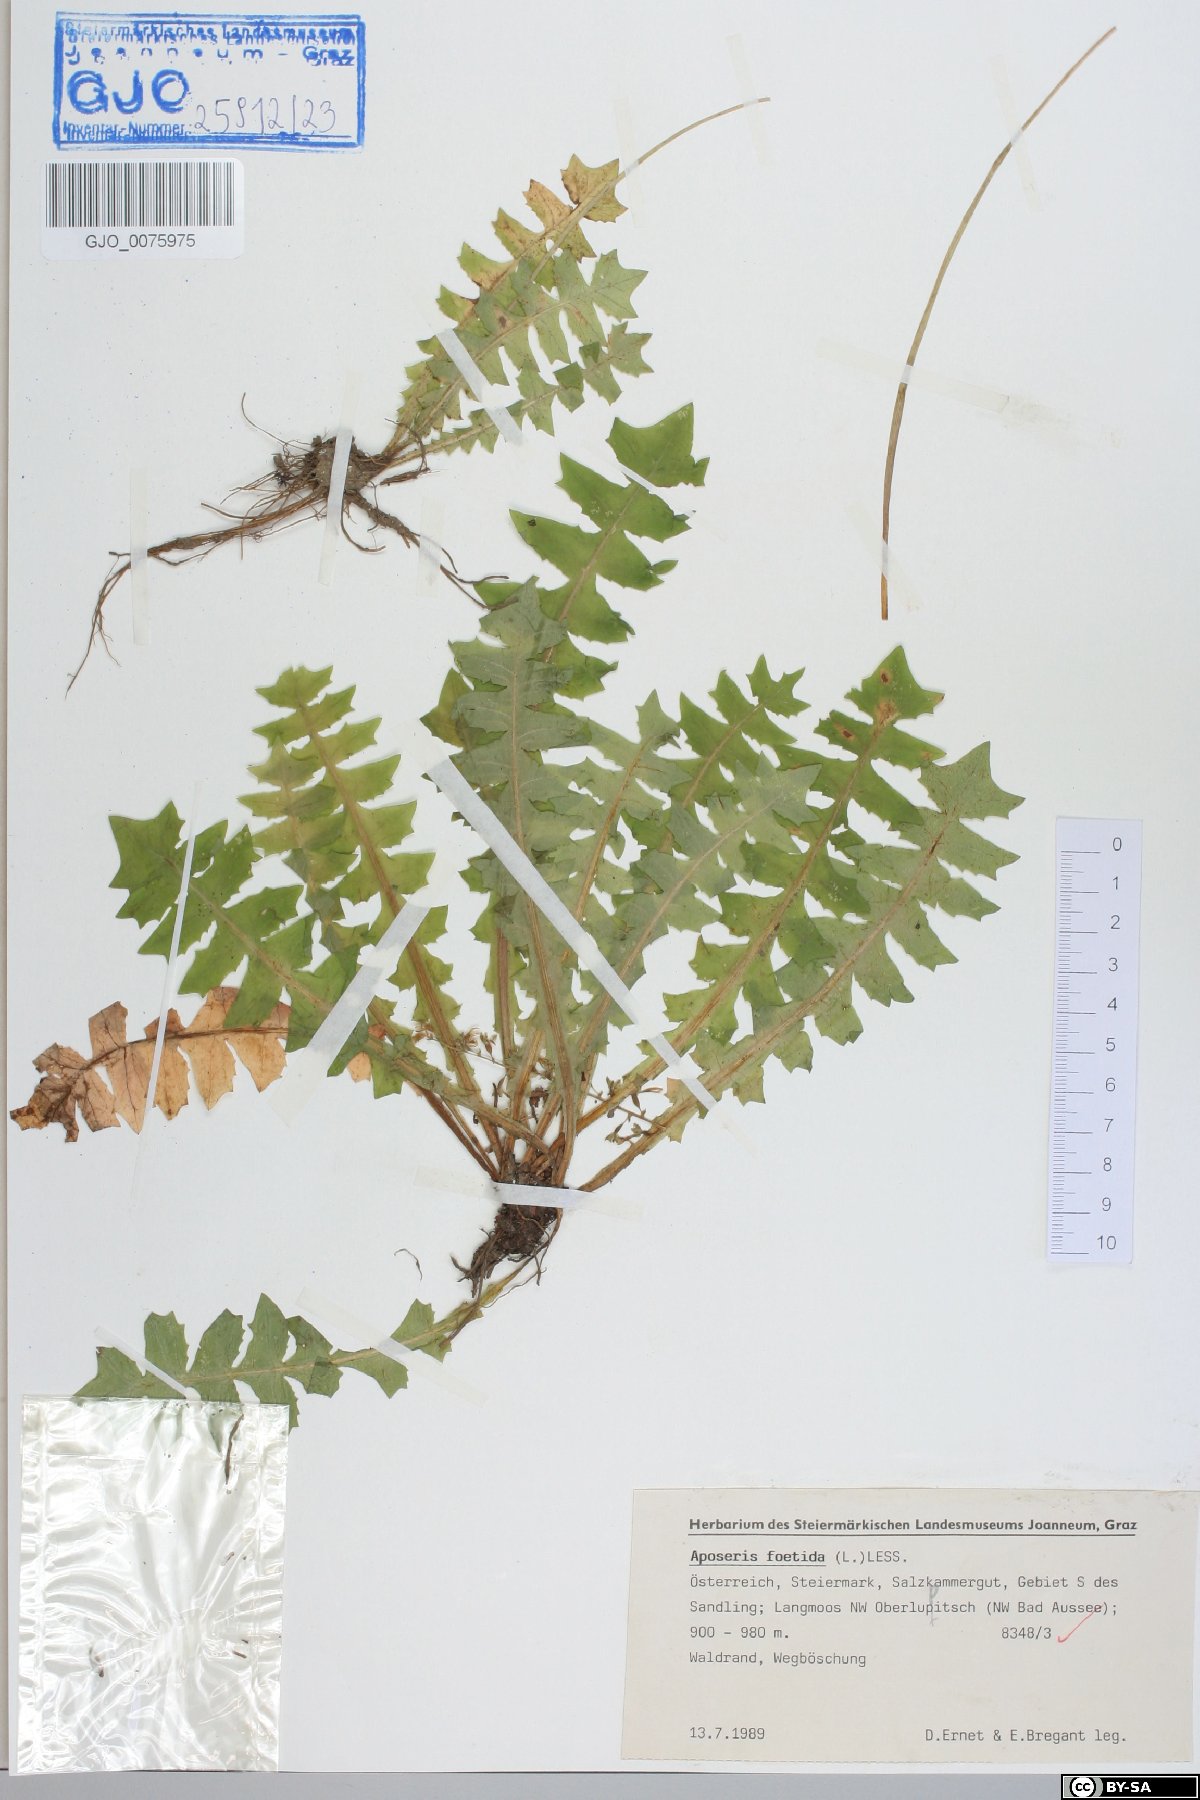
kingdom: Plantae
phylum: Tracheophyta
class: Magnoliopsida
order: Asterales
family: Asteraceae
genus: Aposeris
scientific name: Aposeris foetida
